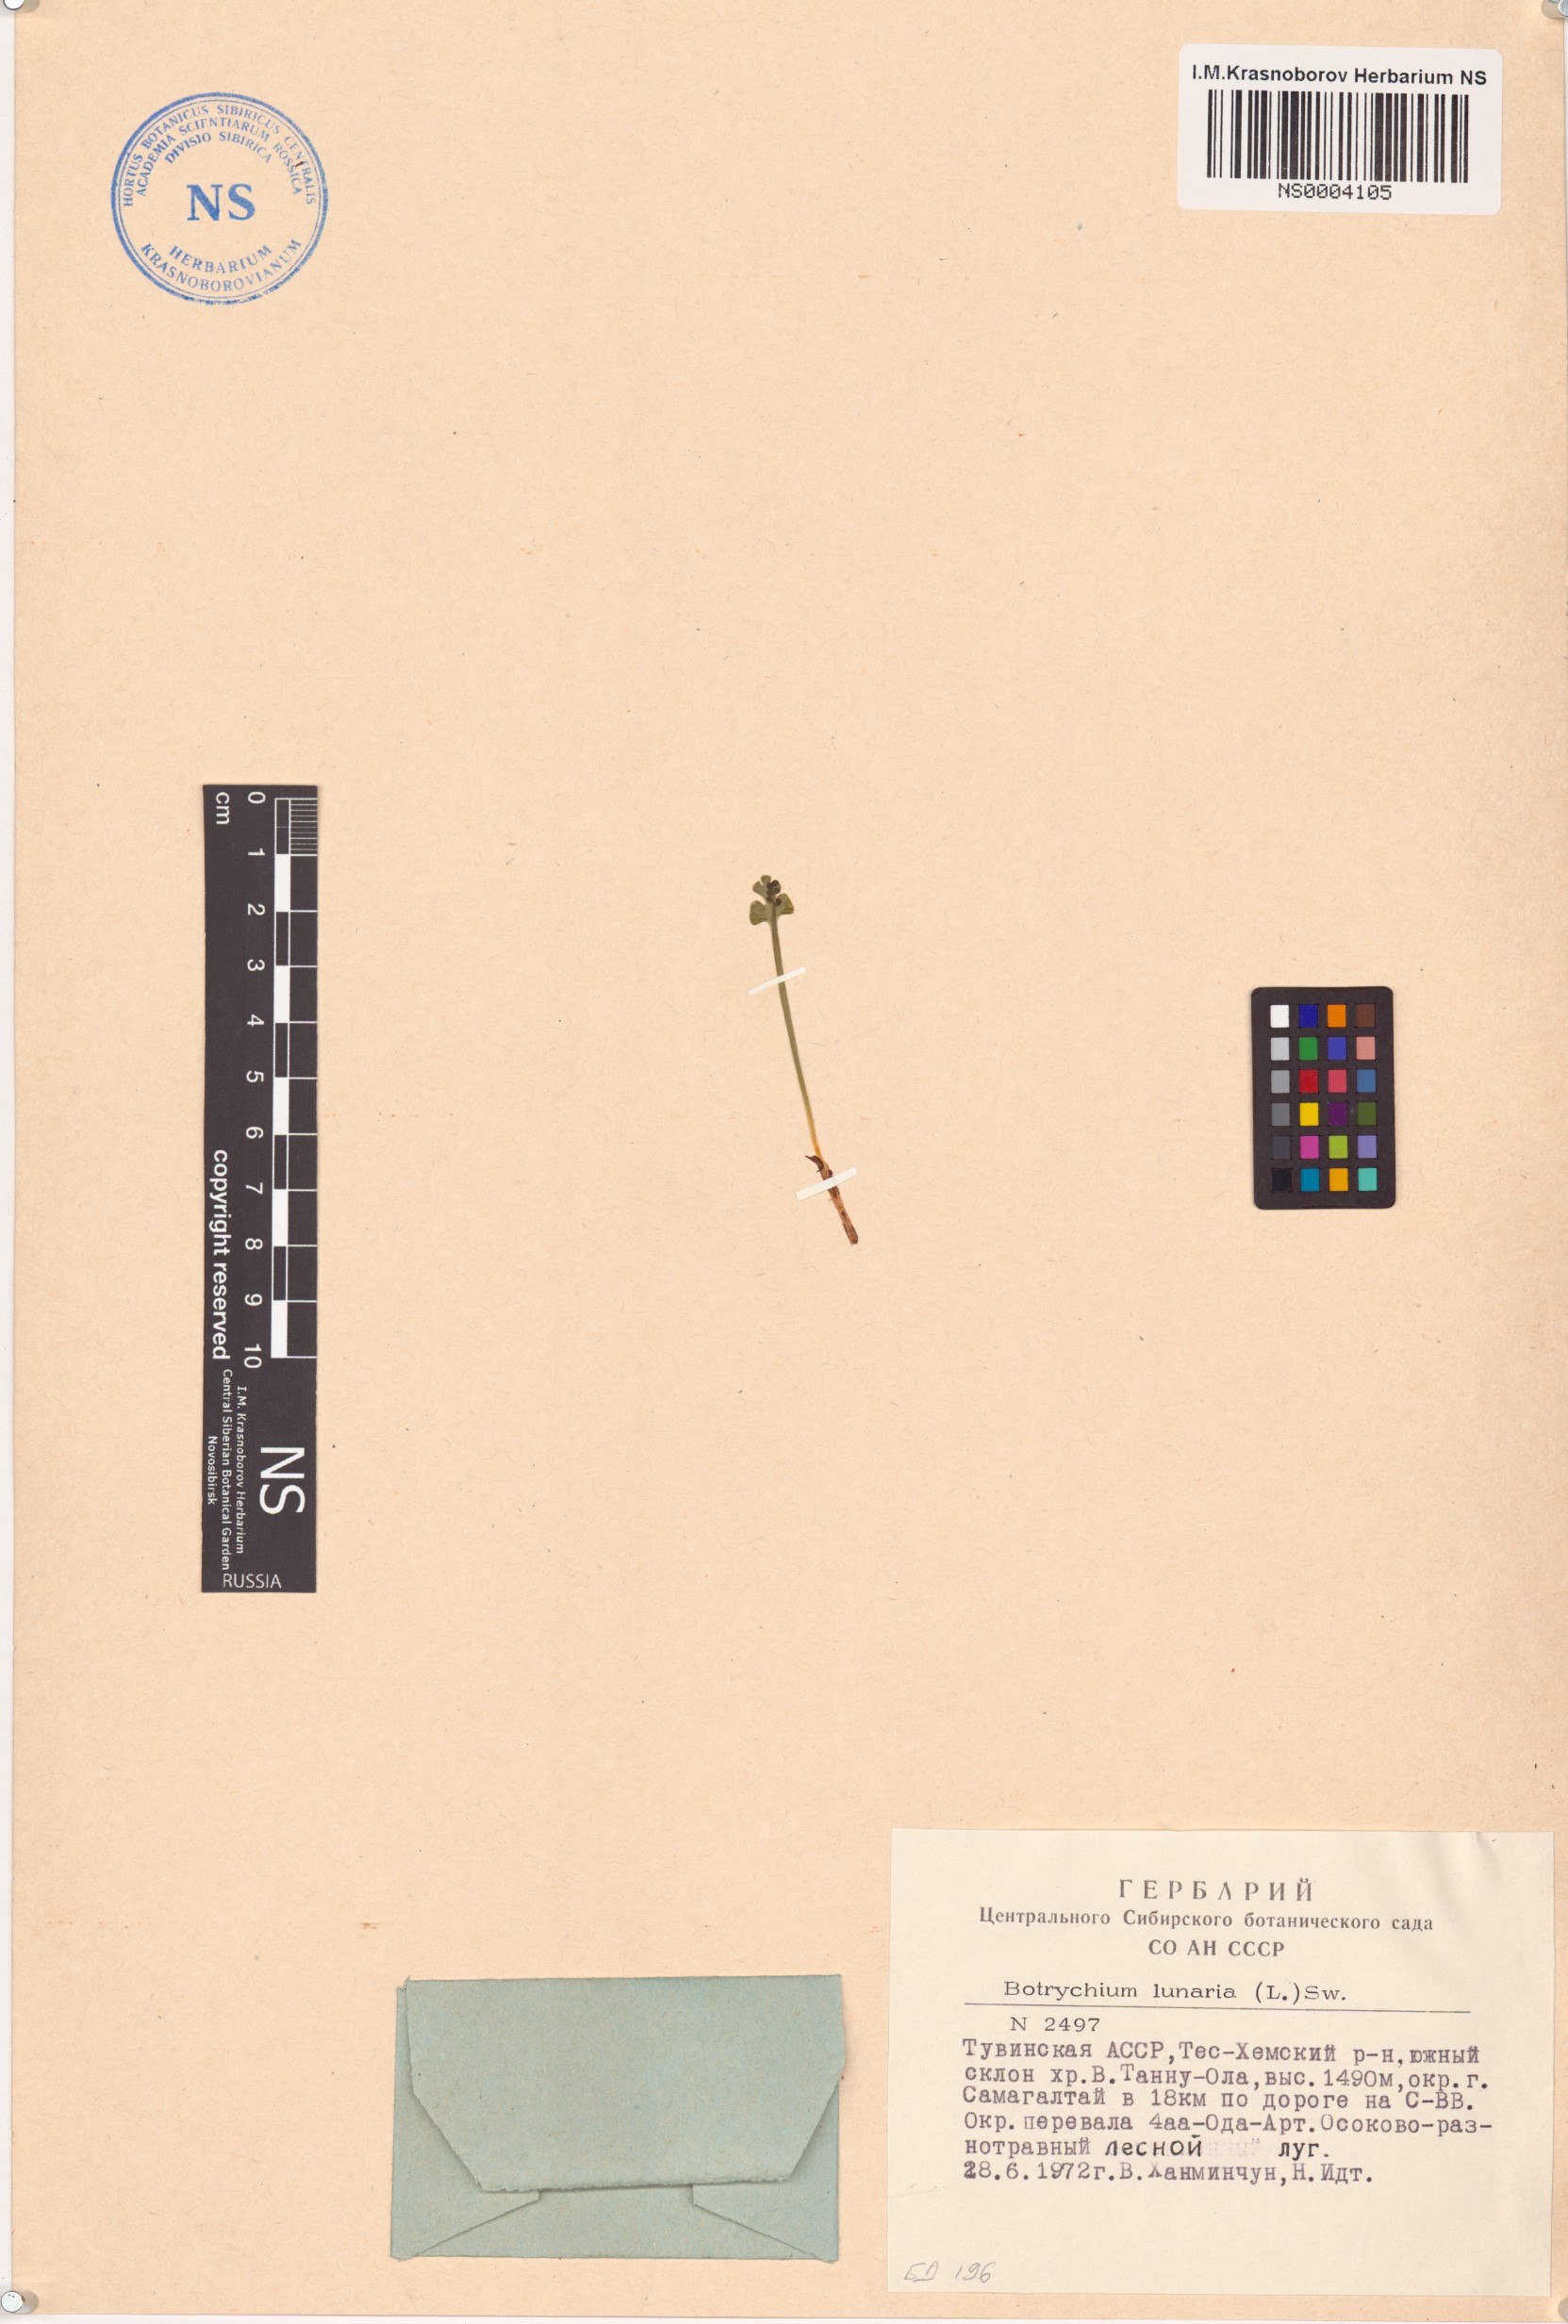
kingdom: Plantae
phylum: Tracheophyta
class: Polypodiopsida
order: Ophioglossales
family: Ophioglossaceae
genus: Botrychium
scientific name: Botrychium lunaria
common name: Moonwort
